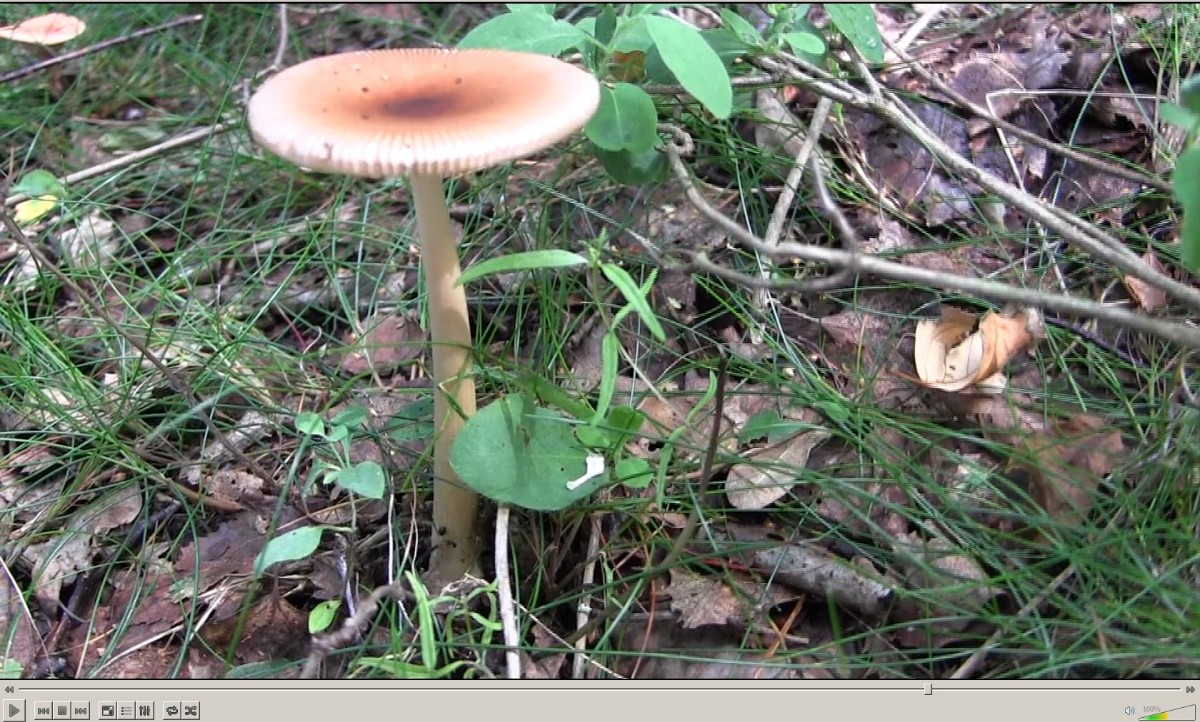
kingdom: Fungi
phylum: Basidiomycota
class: Agaricomycetes
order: Agaricales
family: Amanitaceae
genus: Amanita
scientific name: Amanita fulva
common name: brun kam-fluesvamp
